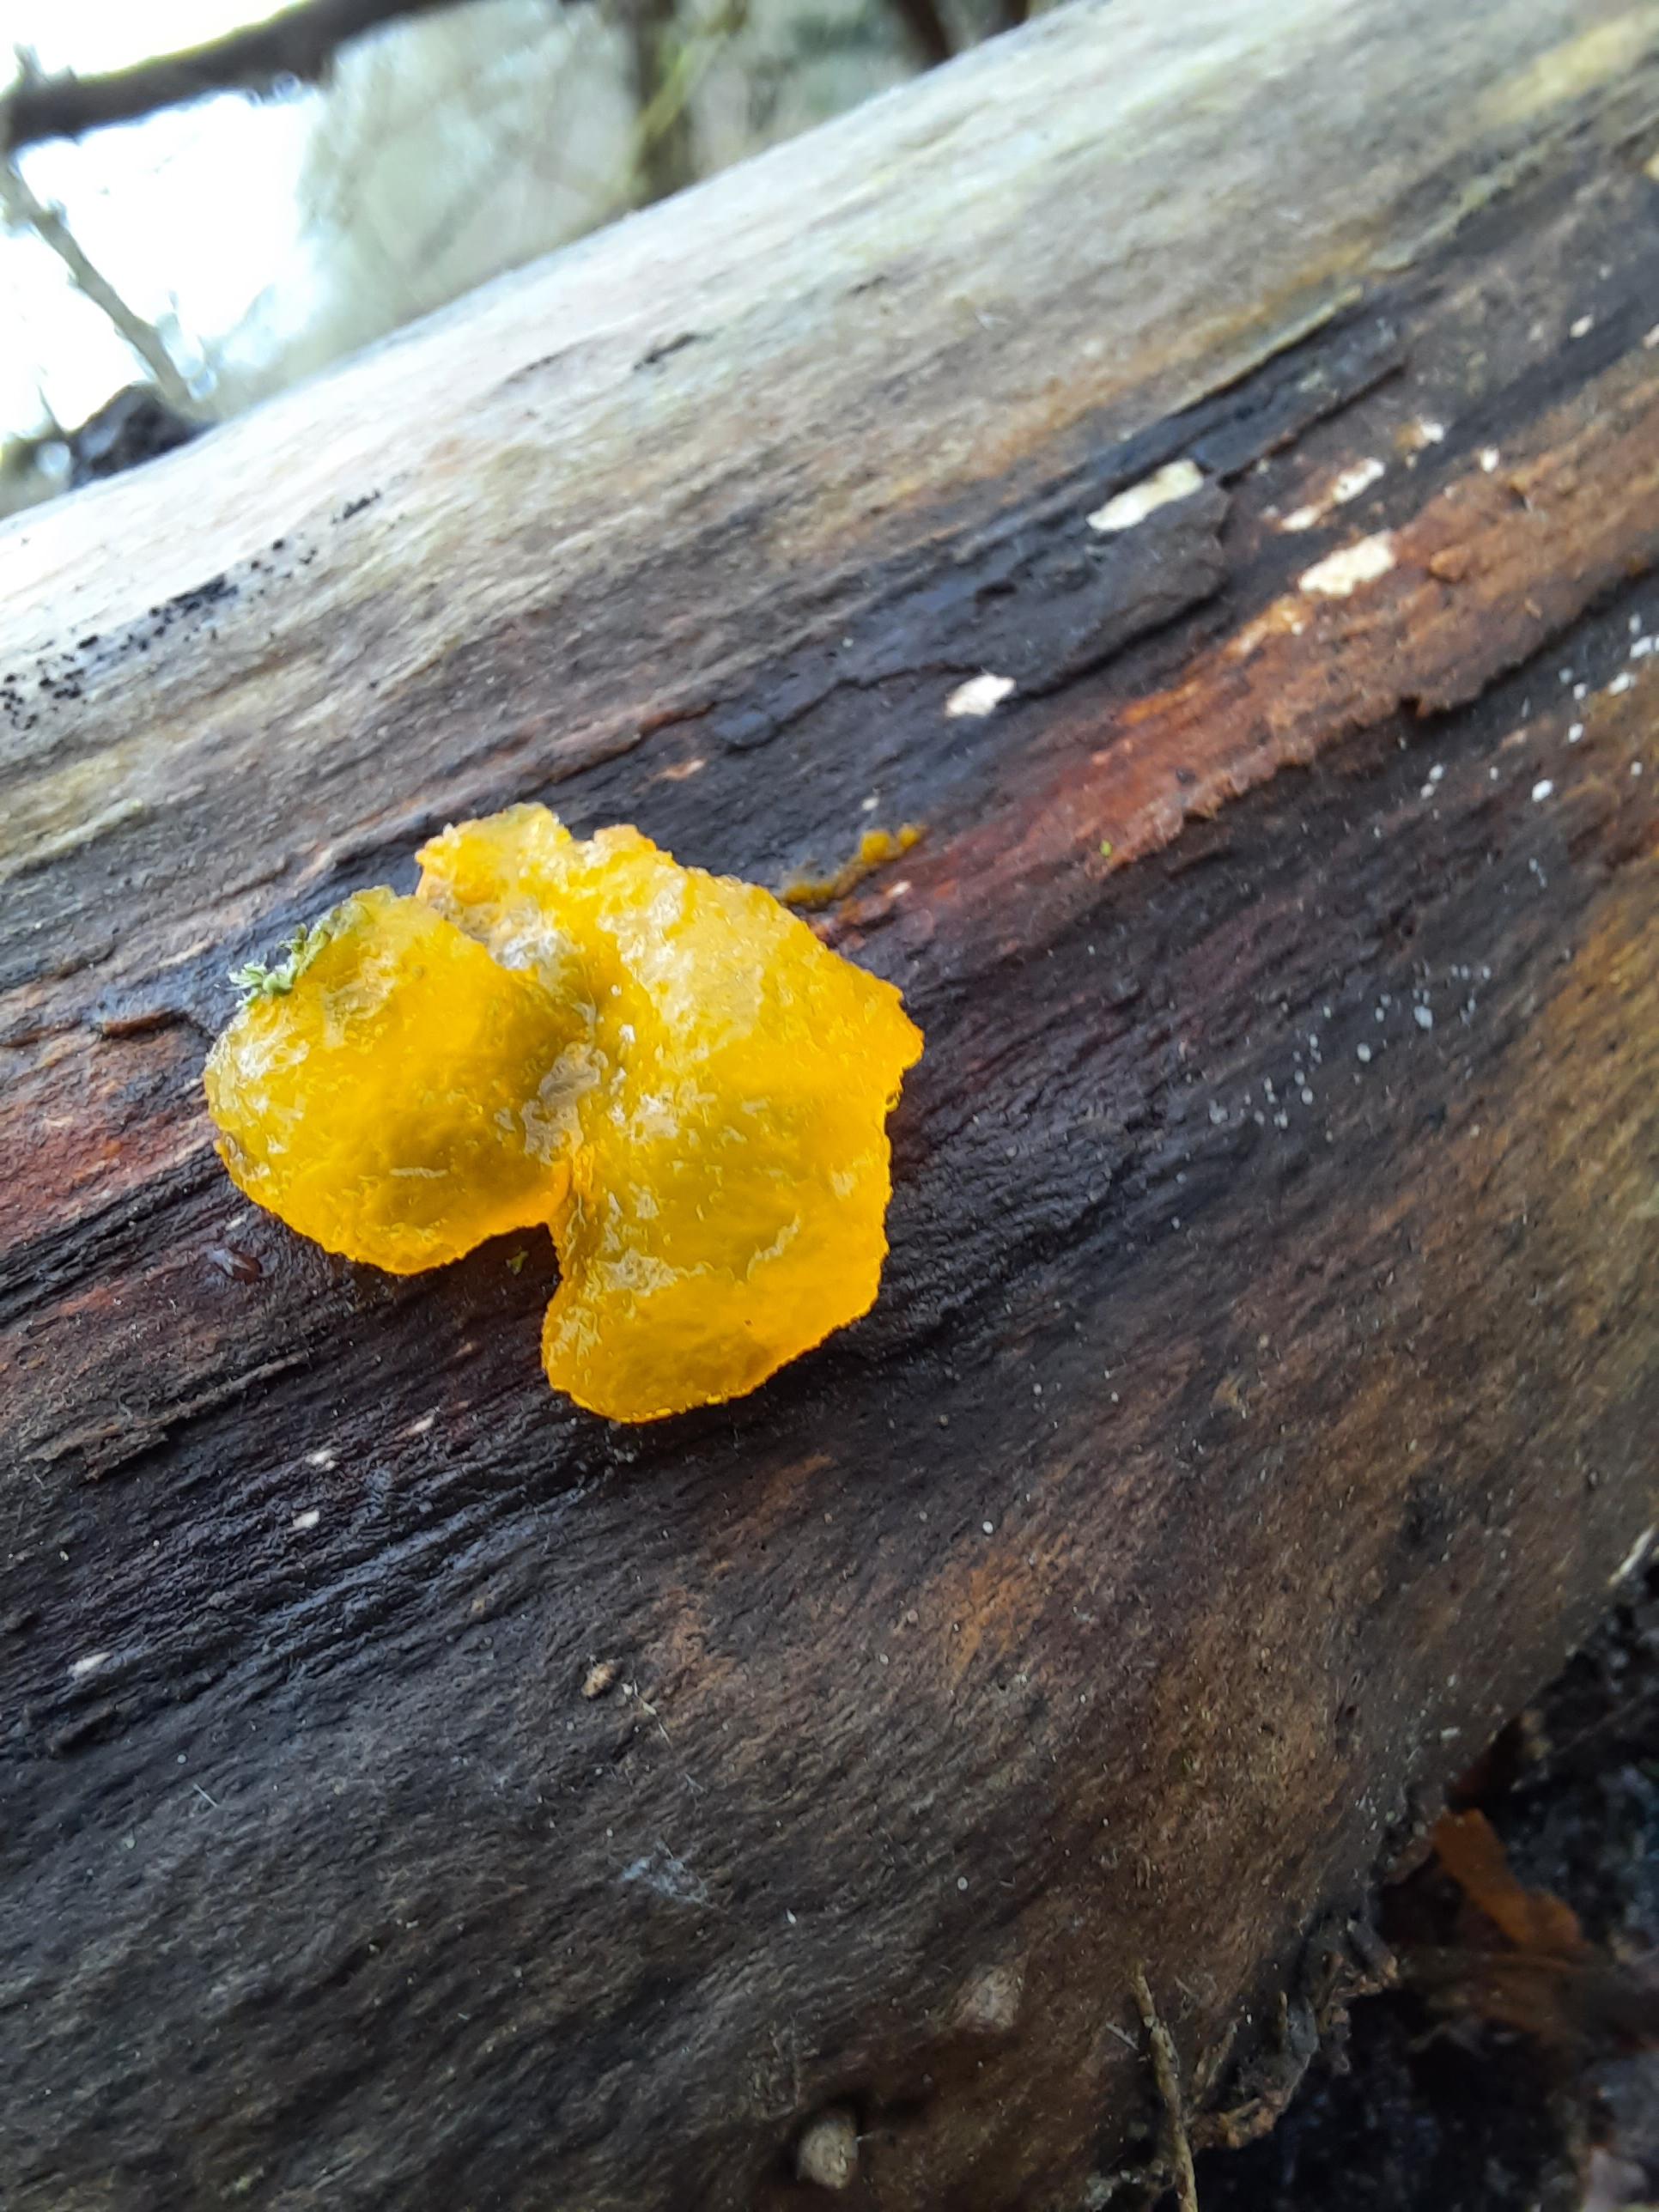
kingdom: Fungi
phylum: Basidiomycota
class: Tremellomycetes
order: Tremellales
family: Tremellaceae
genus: Tremella
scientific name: Tremella mesenterica
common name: gul bævresvamp
